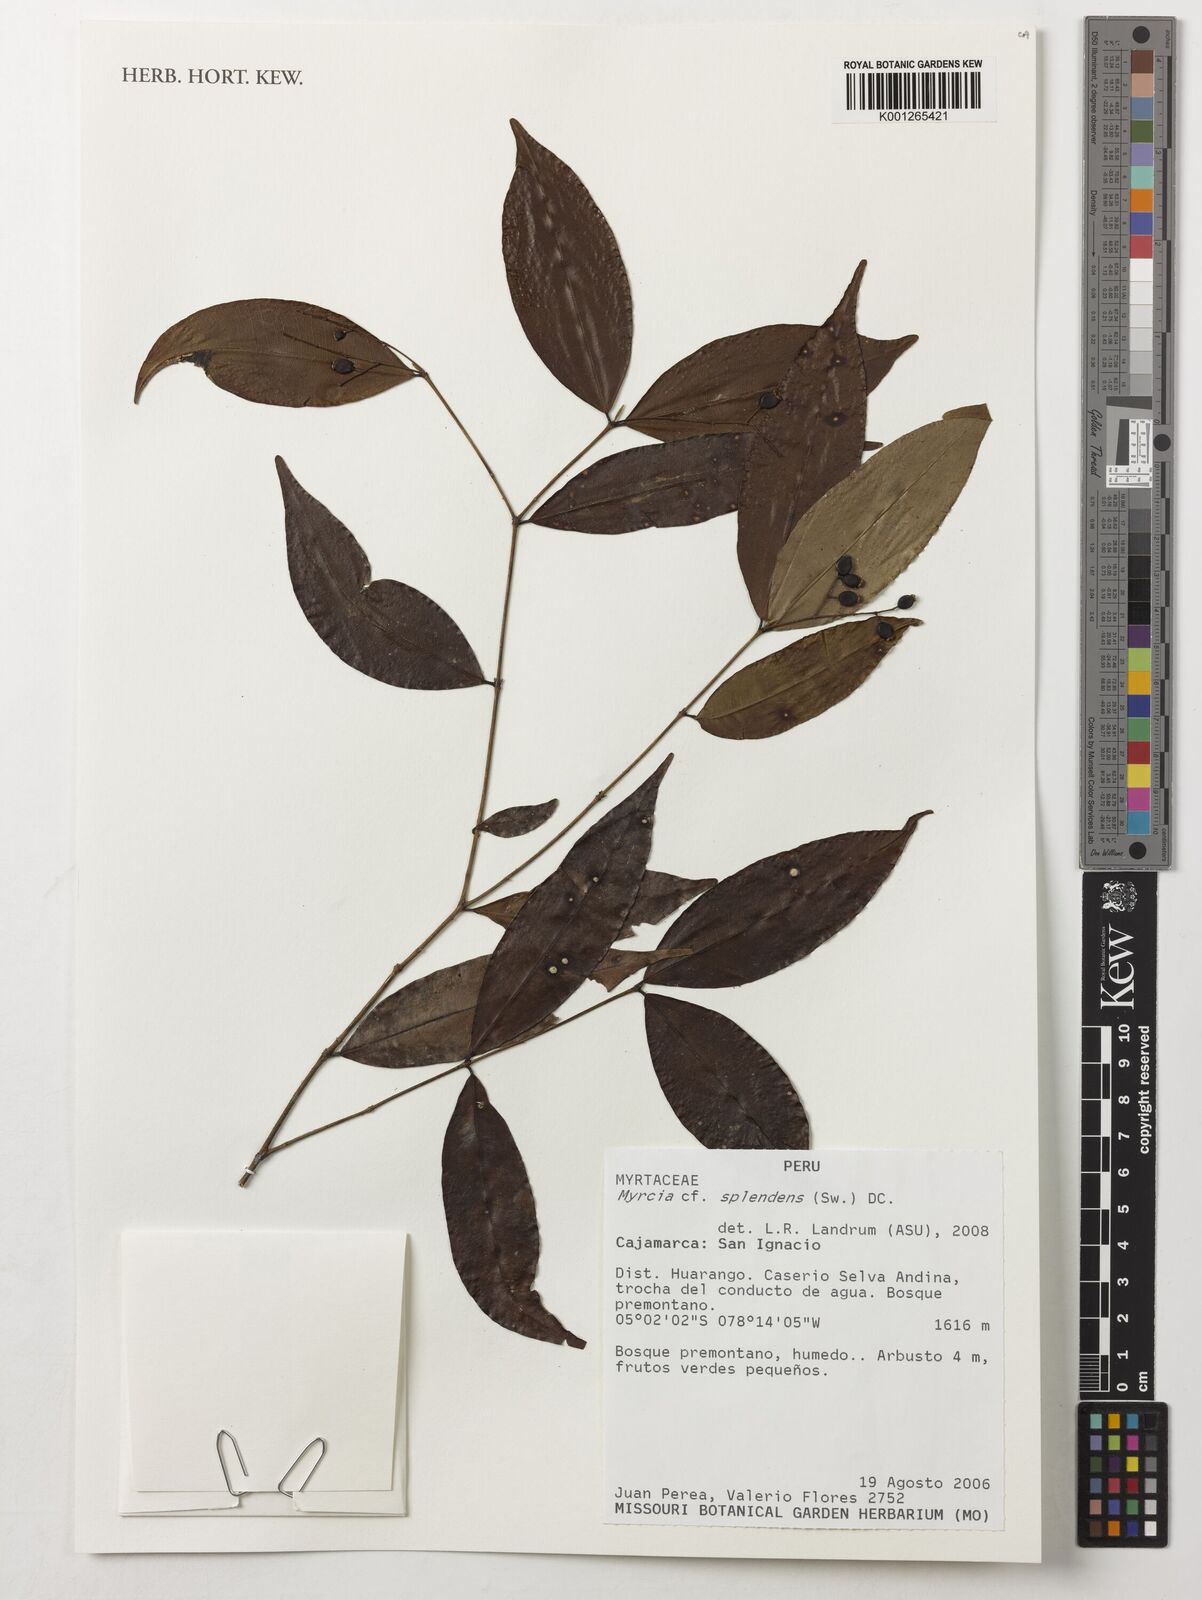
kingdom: Plantae
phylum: Tracheophyta
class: Magnoliopsida
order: Myrtales
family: Myrtaceae
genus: Myrcia
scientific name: Myrcia splendens
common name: Surinam cherry
